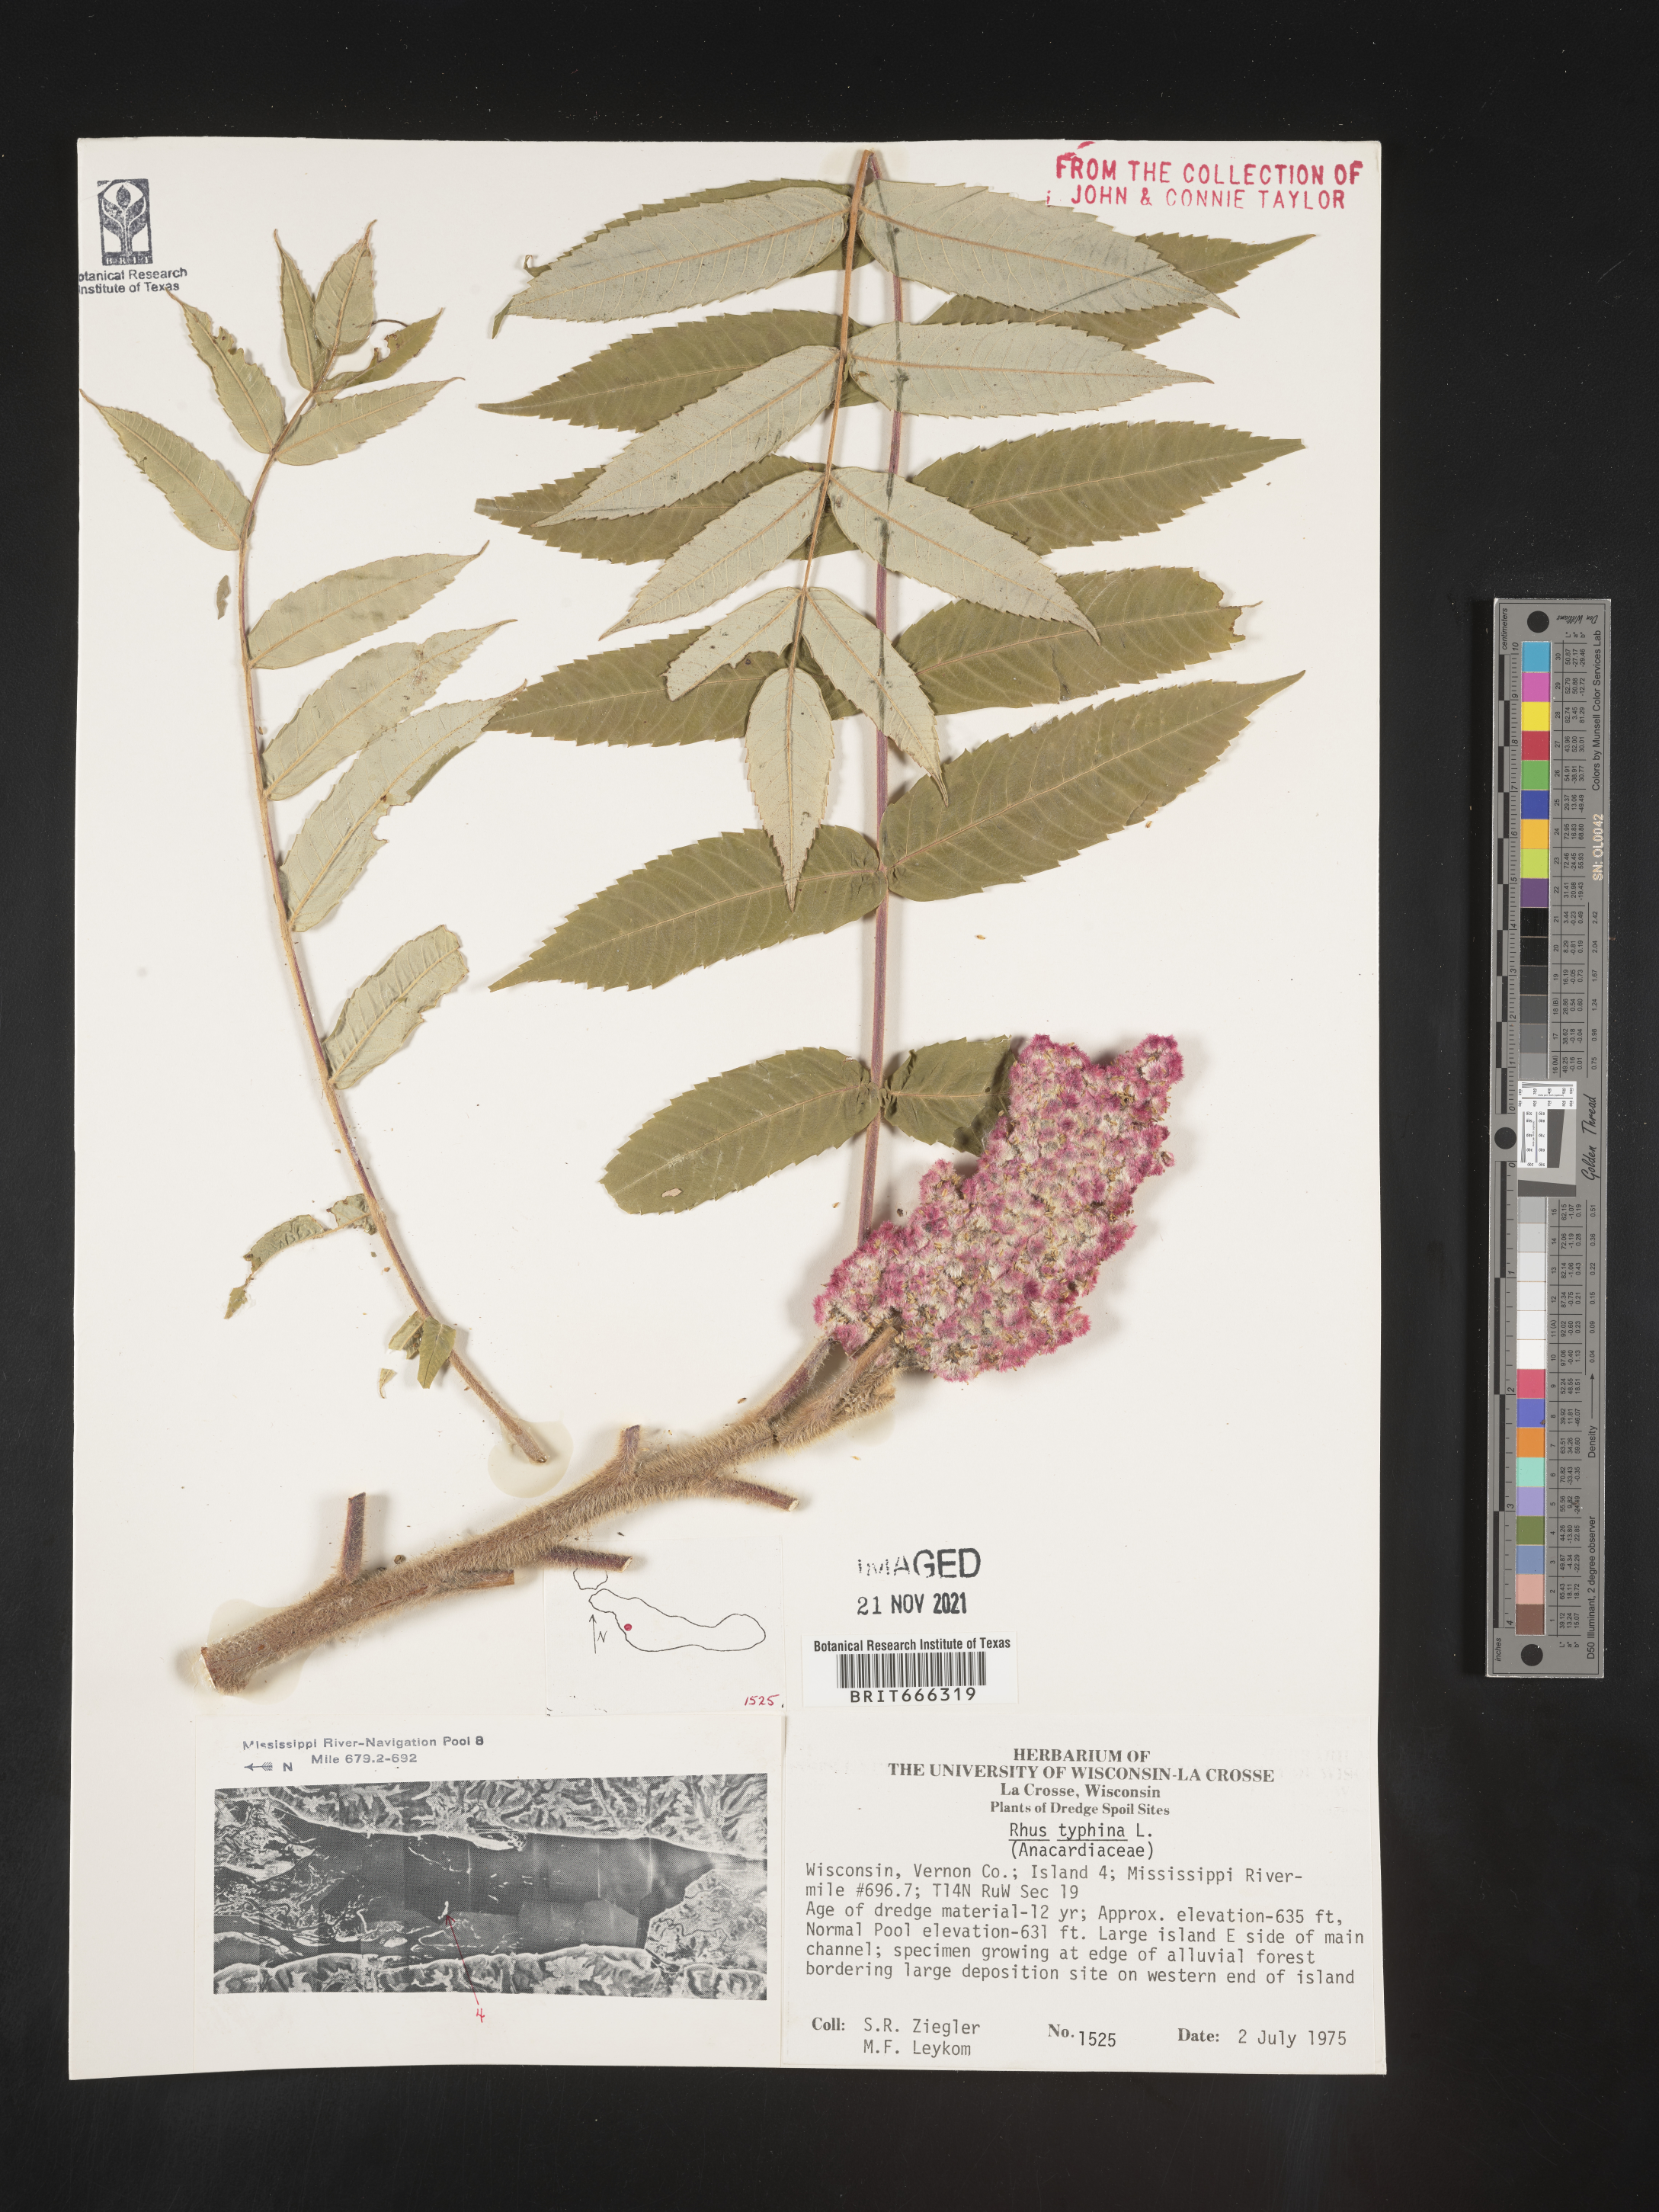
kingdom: Plantae
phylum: Tracheophyta
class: Magnoliopsida
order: Sapindales
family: Anacardiaceae
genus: Rhus
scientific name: Rhus typhina
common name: Staghorn sumac
